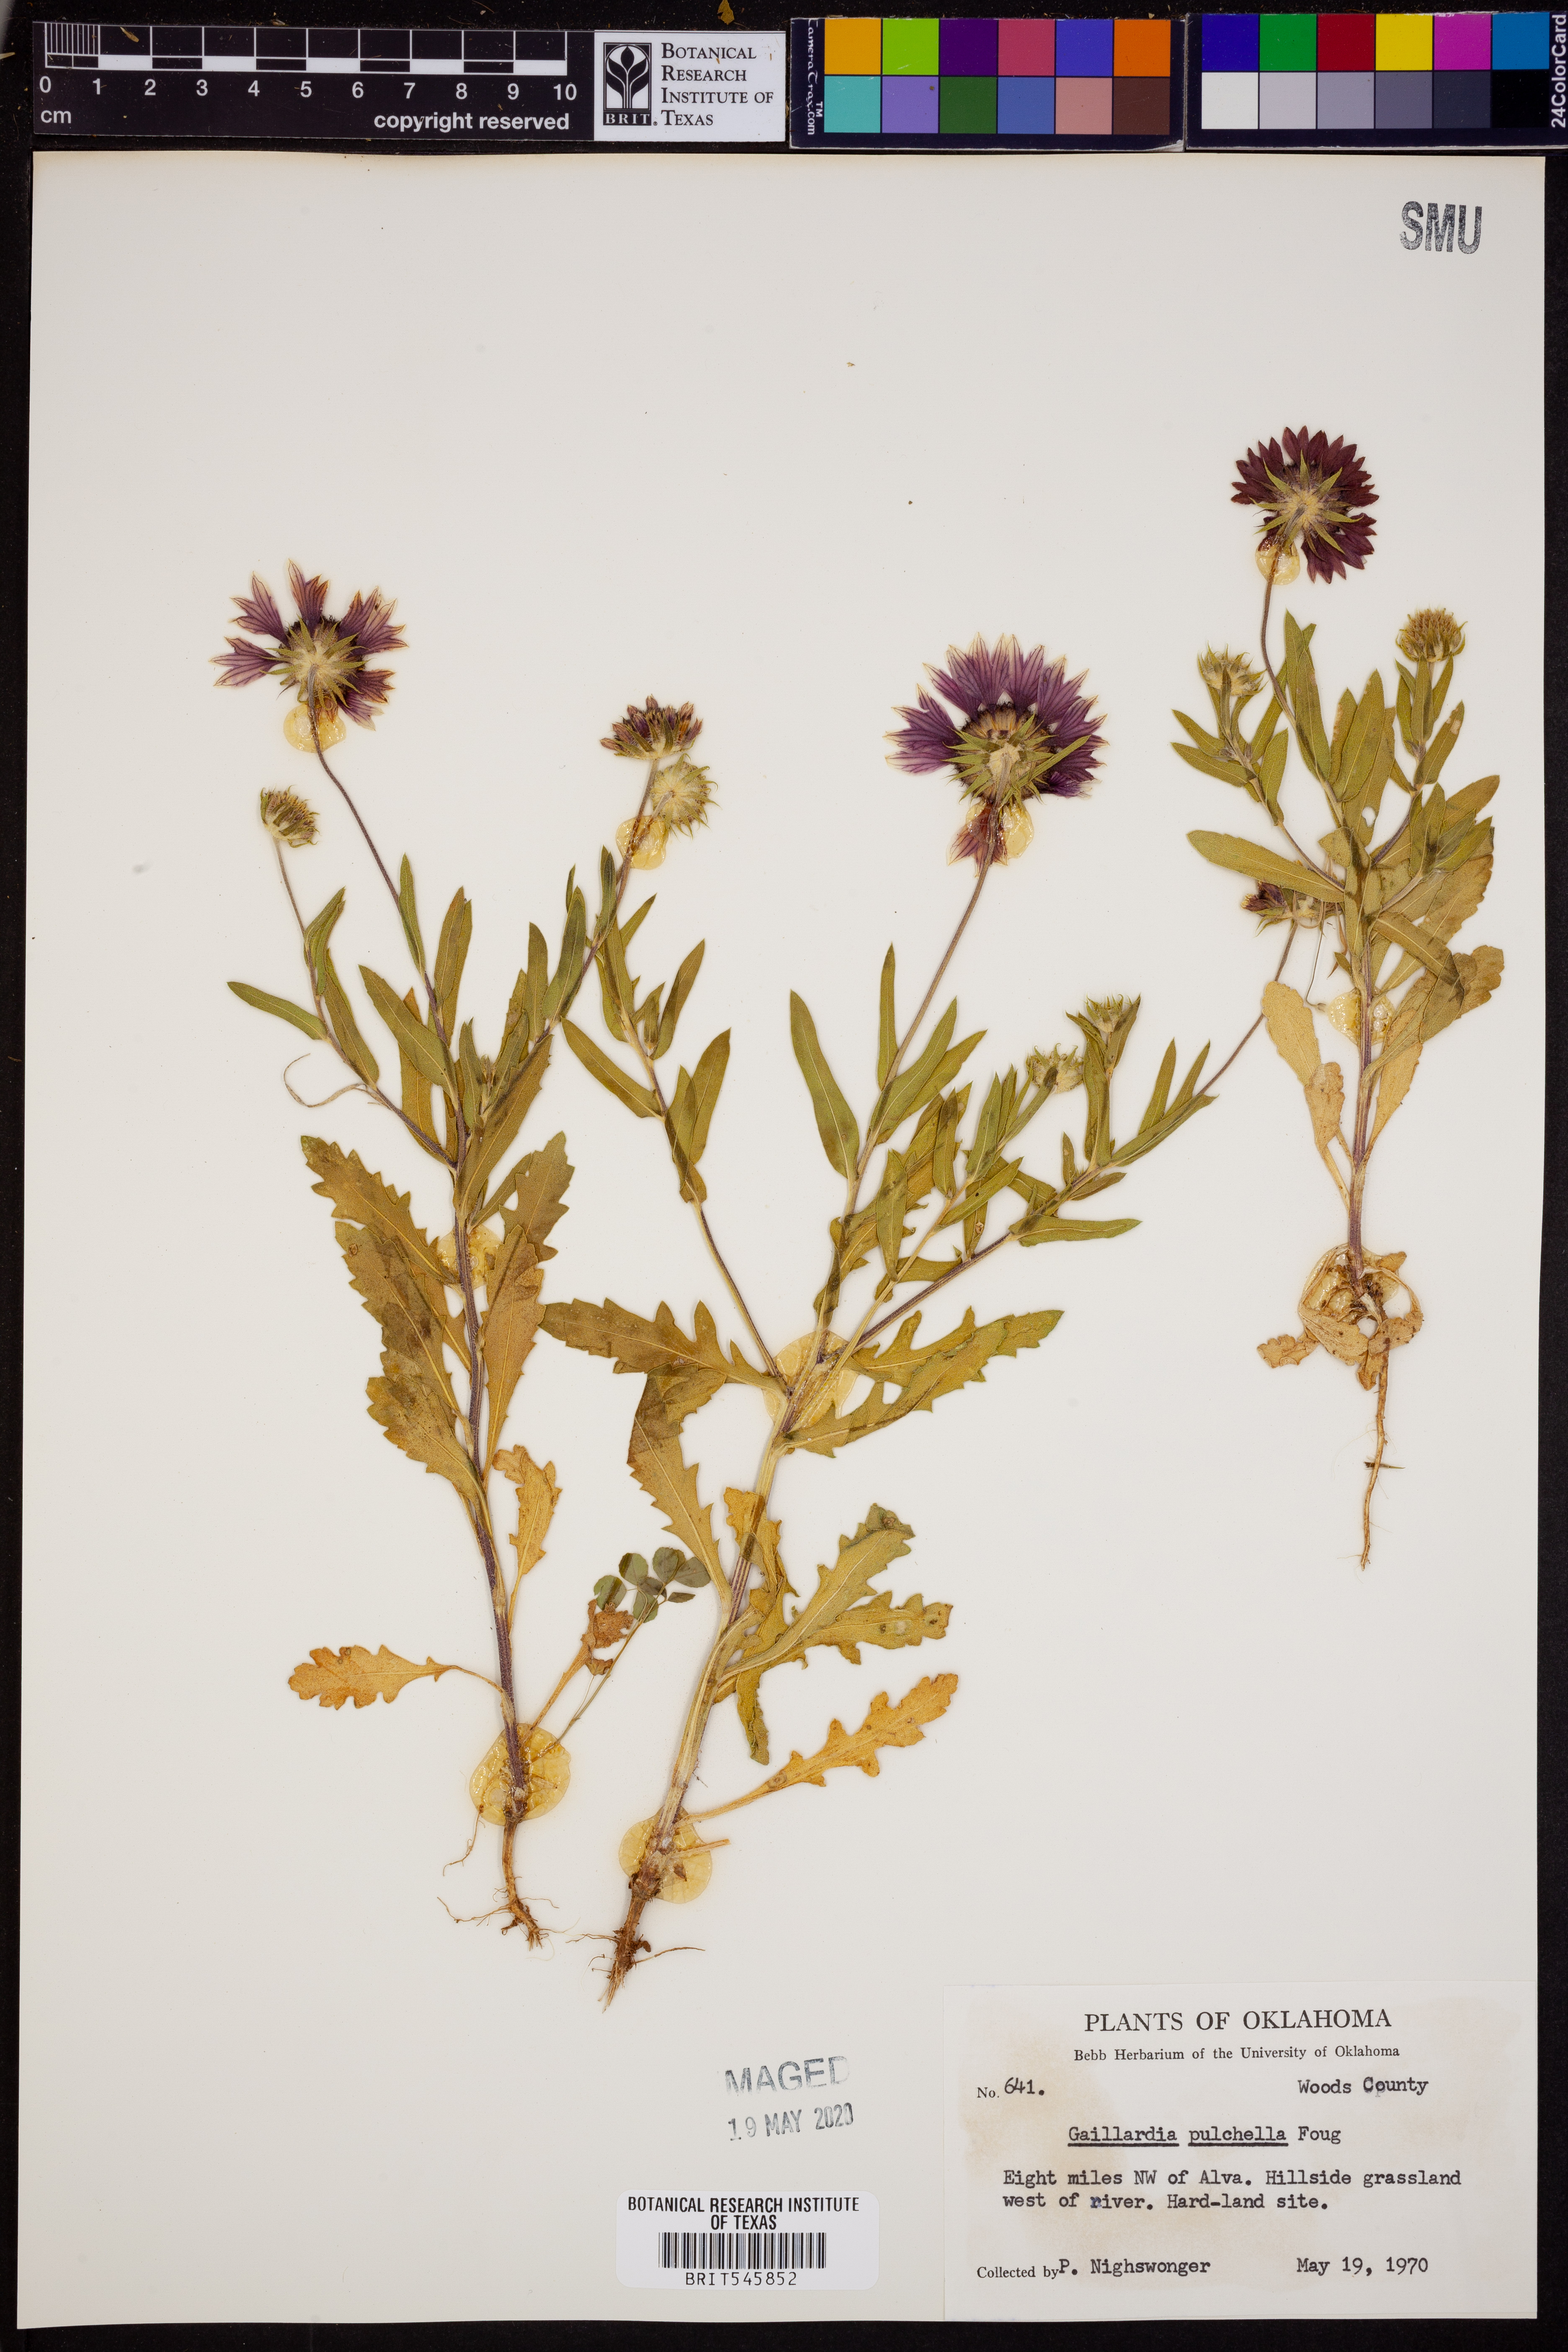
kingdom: Plantae
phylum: Tracheophyta
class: Magnoliopsida
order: Asterales
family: Asteraceae
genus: Gaillardia
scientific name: Gaillardia pulchella
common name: Firewheel
